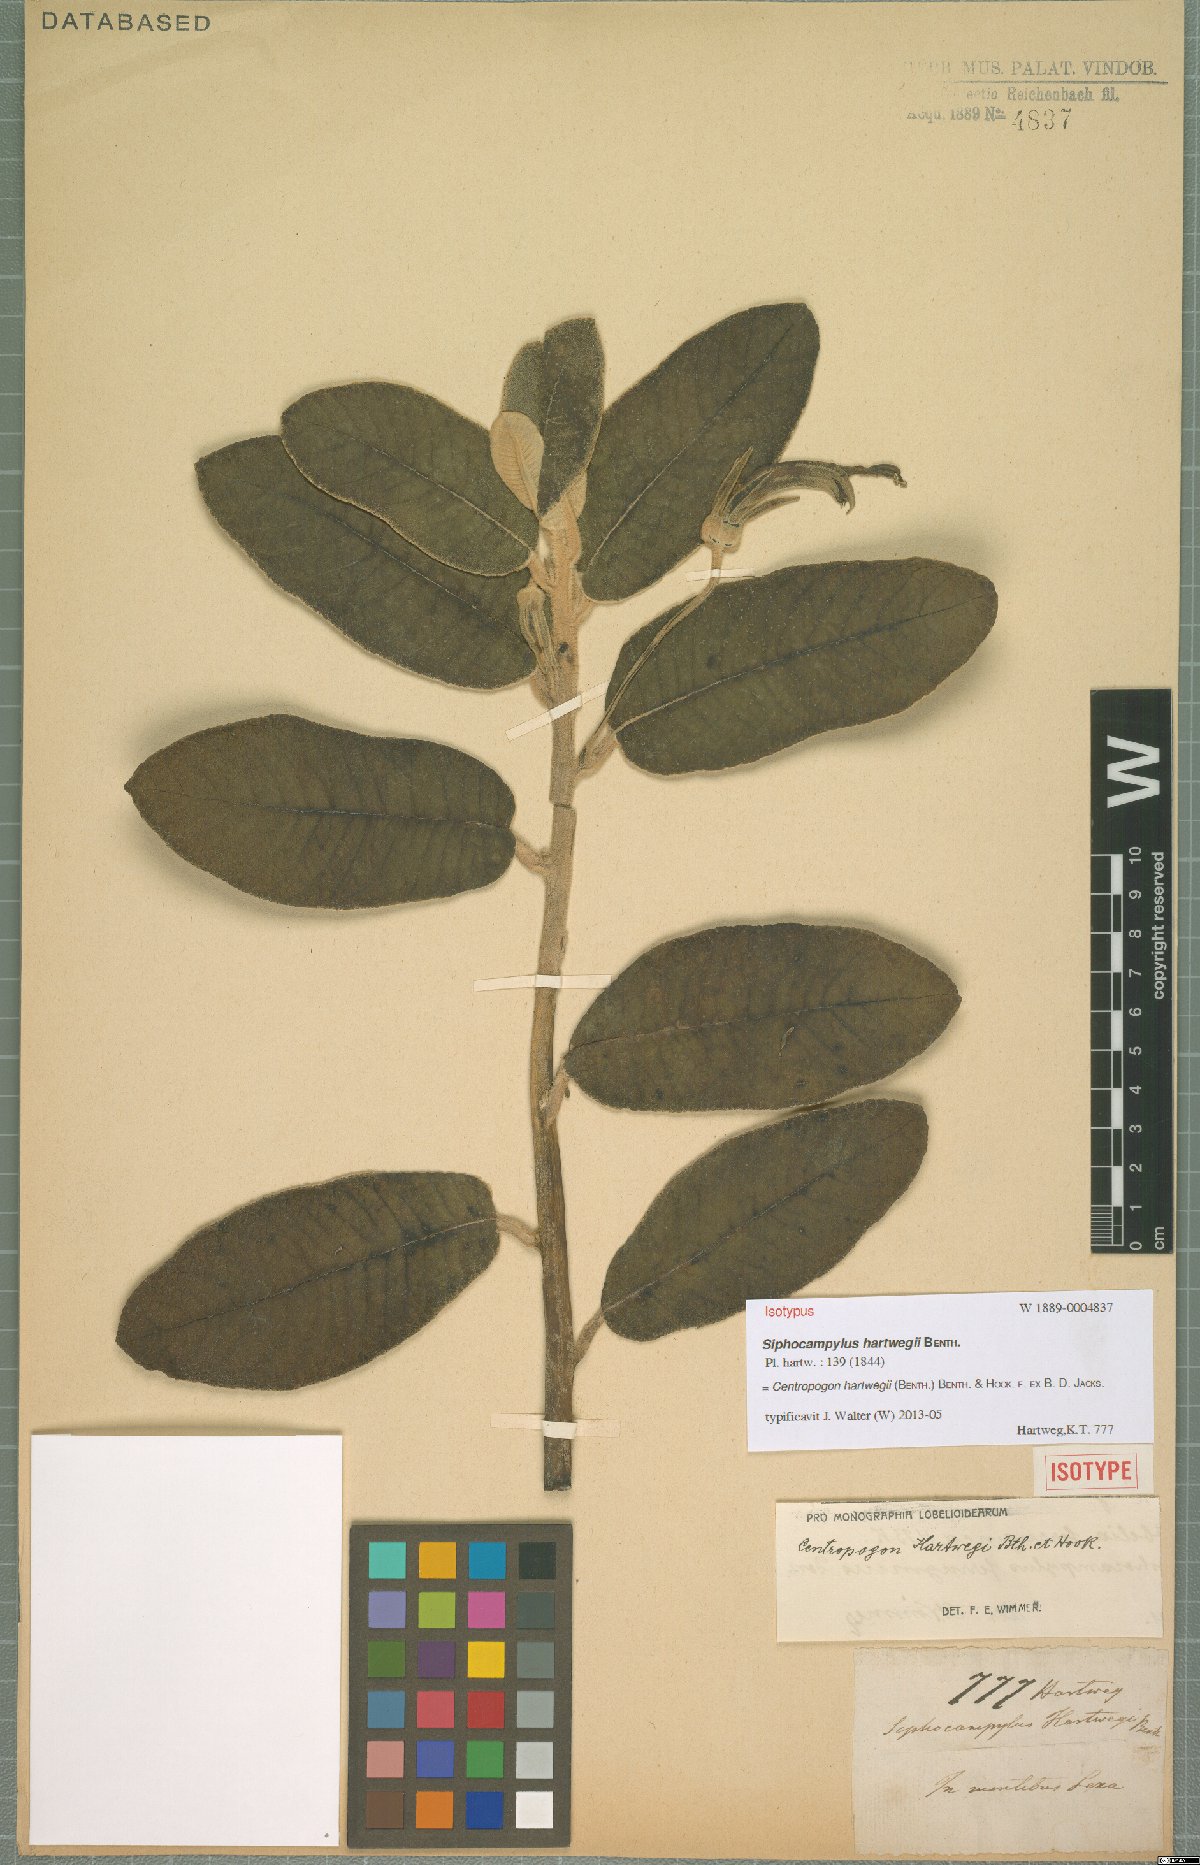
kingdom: Plantae
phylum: Tracheophyta
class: Magnoliopsida
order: Asterales
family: Campanulaceae
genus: Centropogon
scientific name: Centropogon hartwegii
